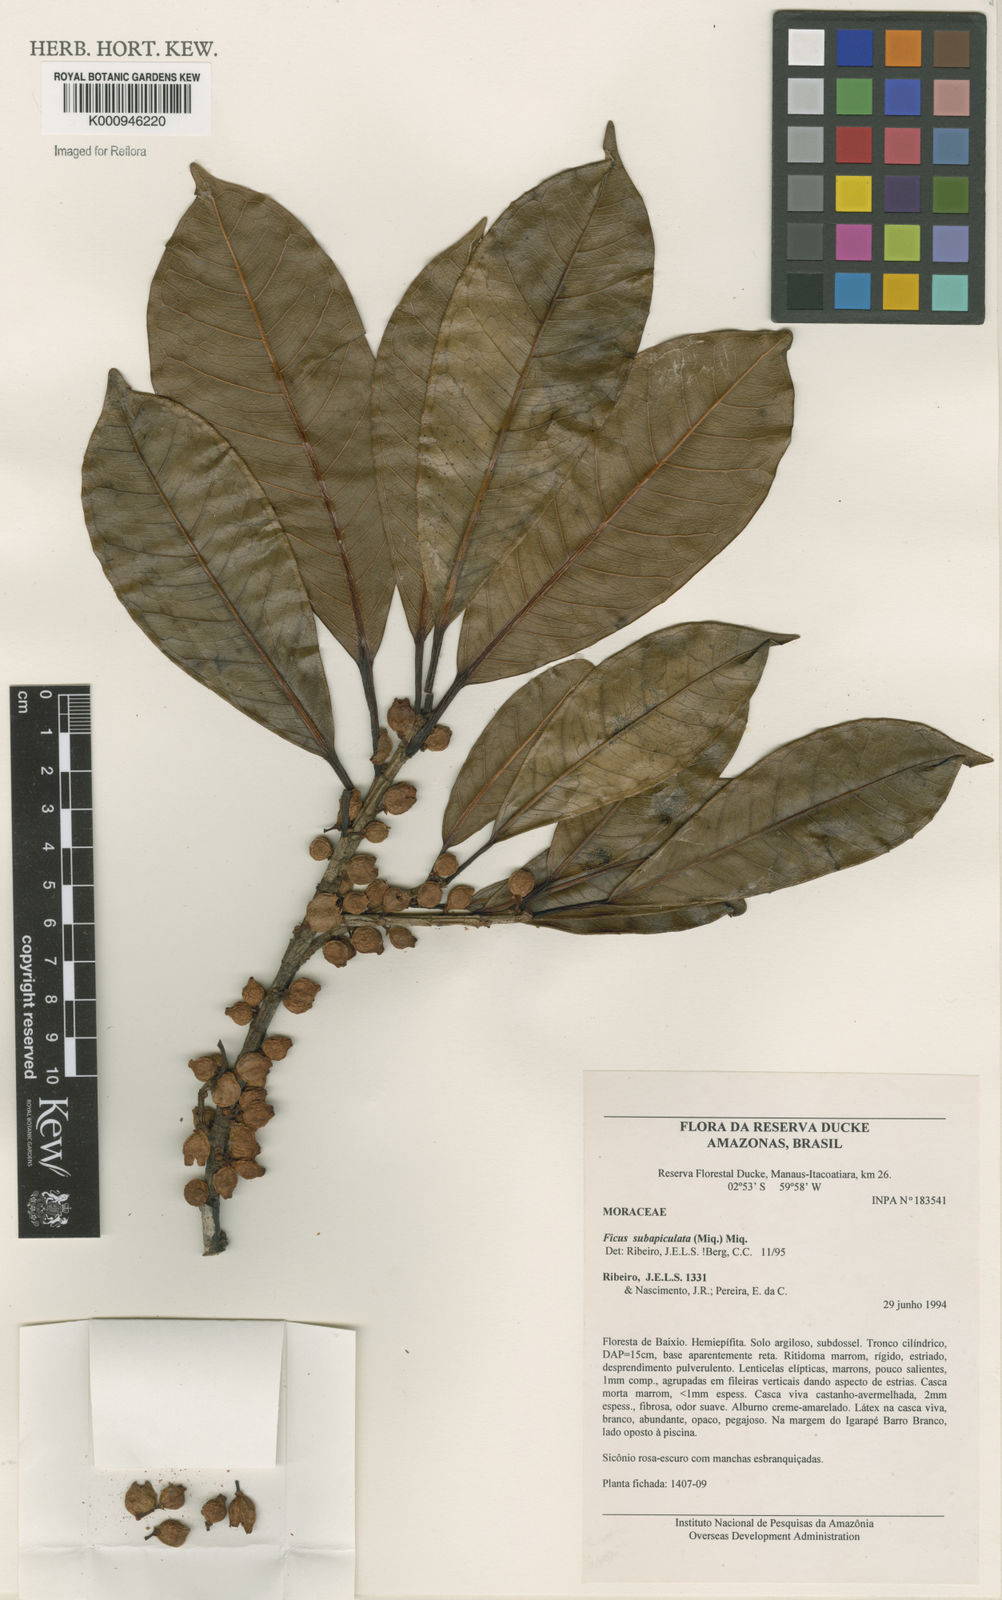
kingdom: Plantae
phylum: Tracheophyta
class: Magnoliopsida
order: Rosales
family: Moraceae
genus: Ficus
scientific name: Ficus americana
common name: Jamaican cherry fig
